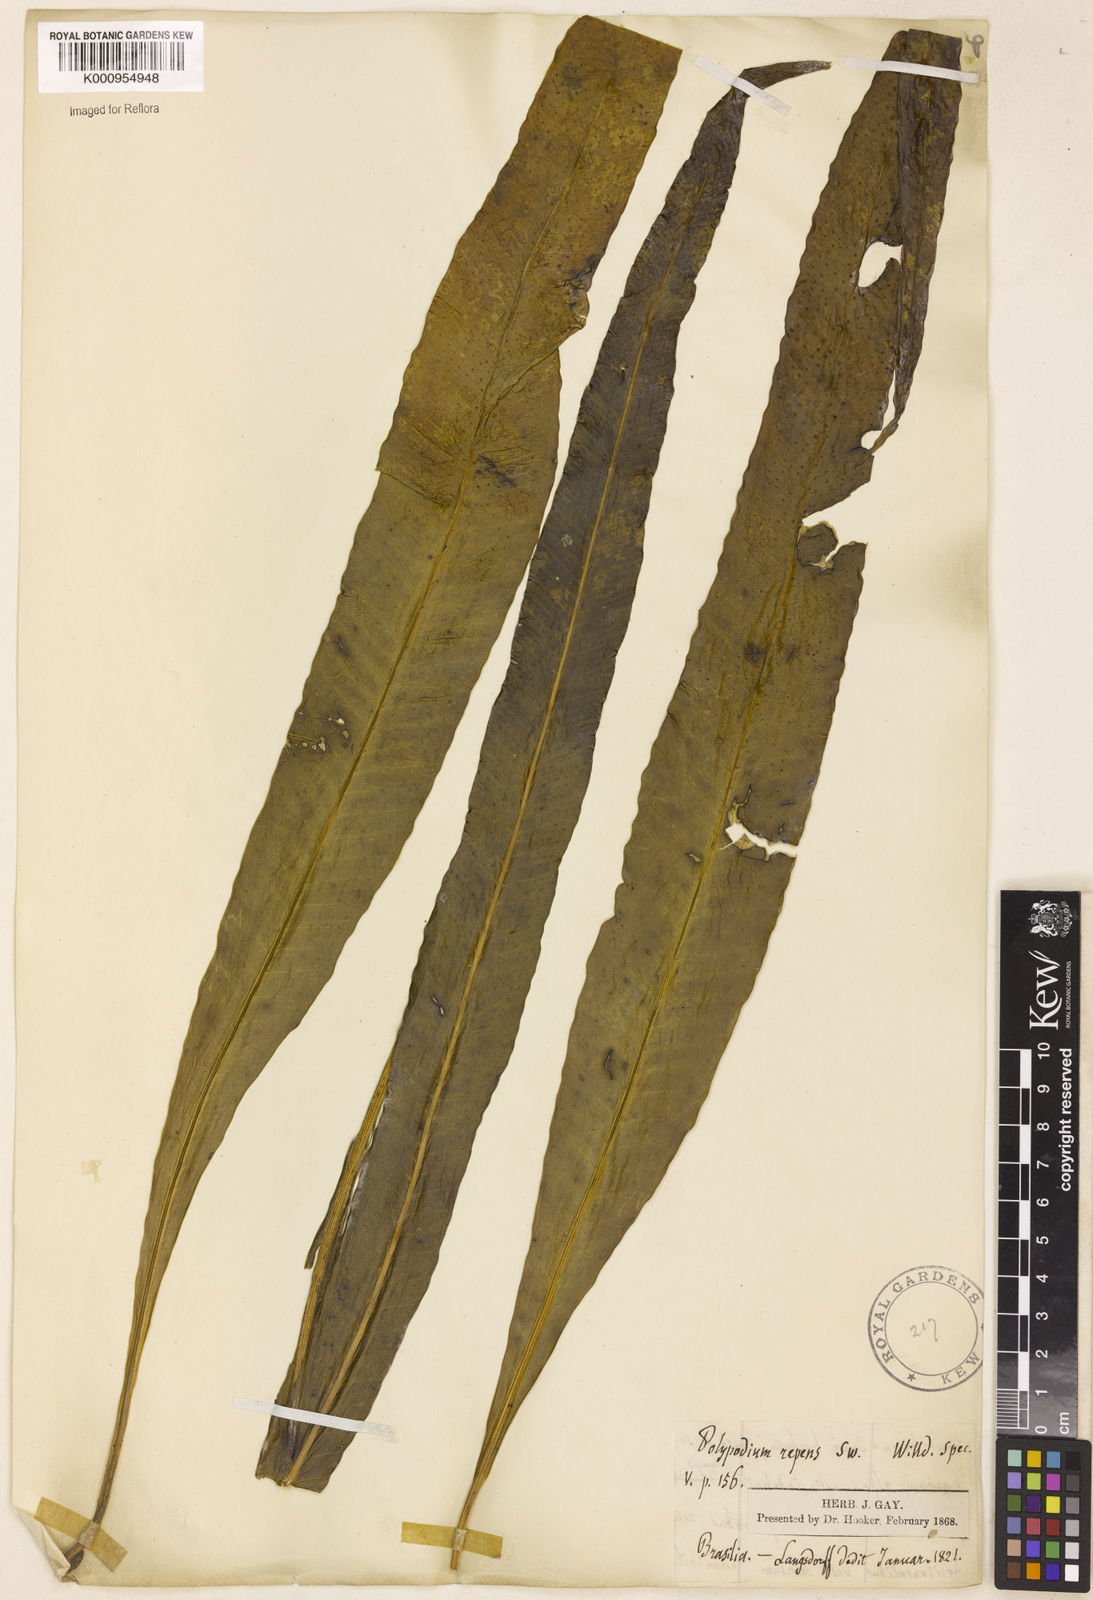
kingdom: Plantae
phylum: Tracheophyta
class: Polypodiopsida
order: Polypodiales
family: Polypodiaceae
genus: Campyloneurum
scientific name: Campyloneurum repens
